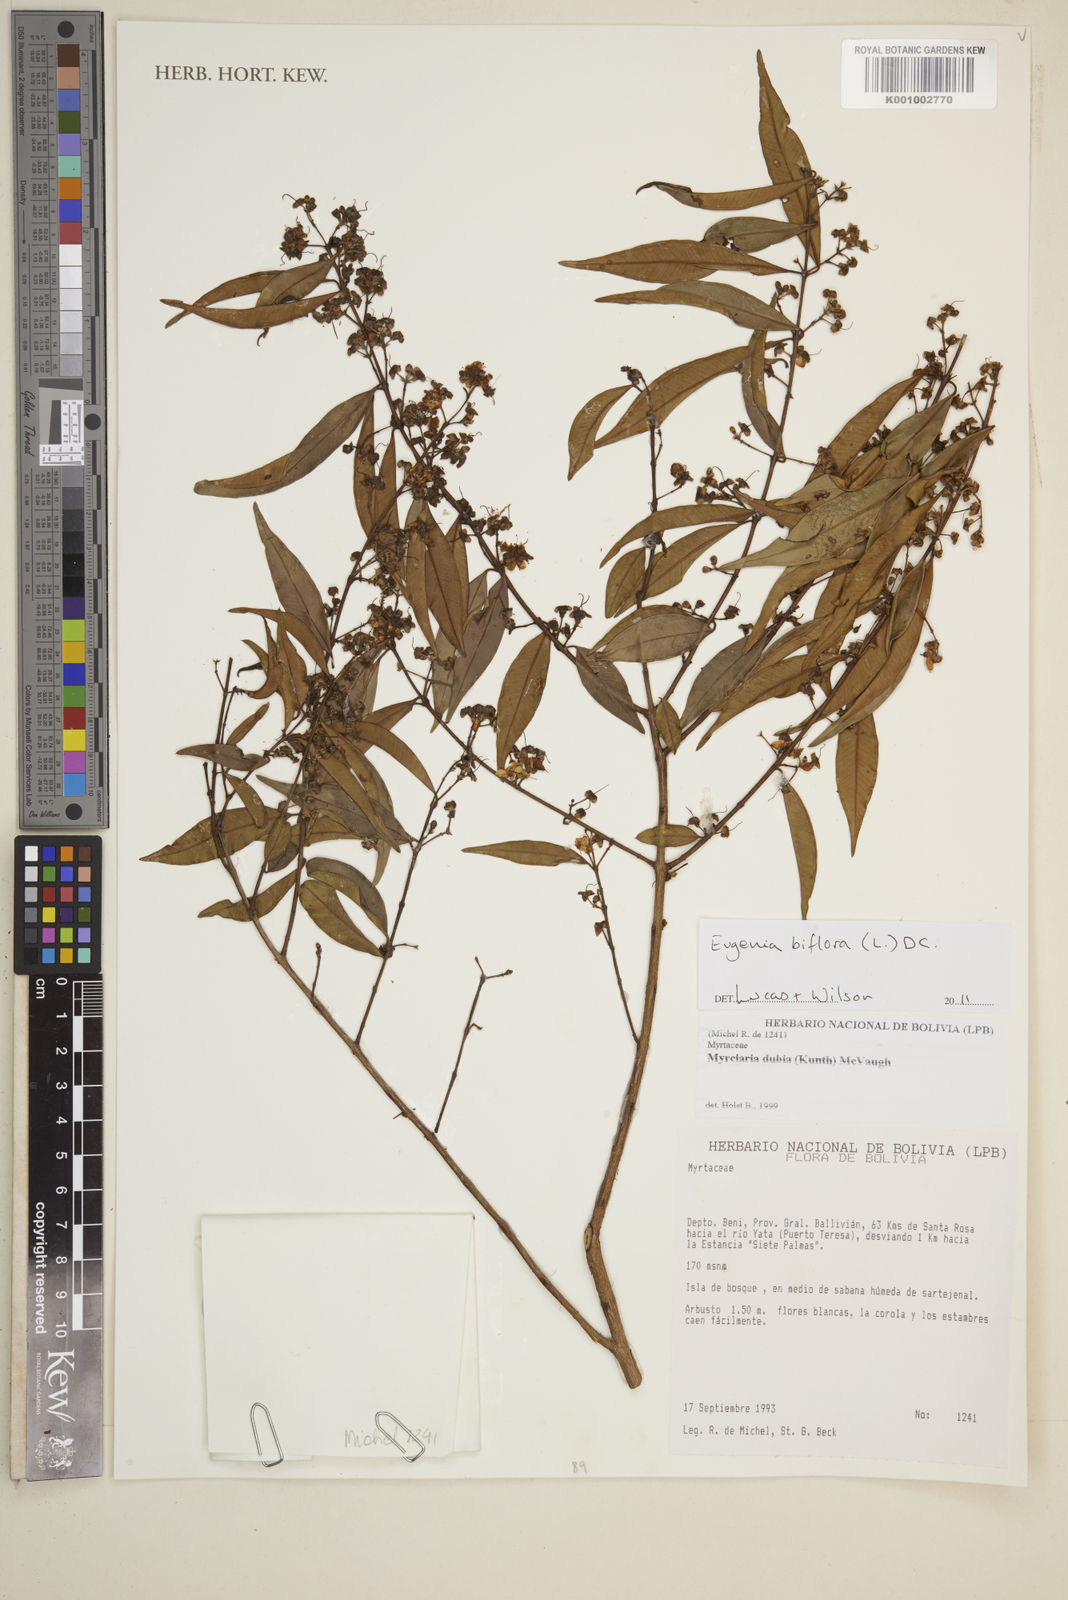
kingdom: Plantae
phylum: Tracheophyta
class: Magnoliopsida
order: Myrtales
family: Myrtaceae
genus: Eugenia
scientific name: Eugenia biflora
